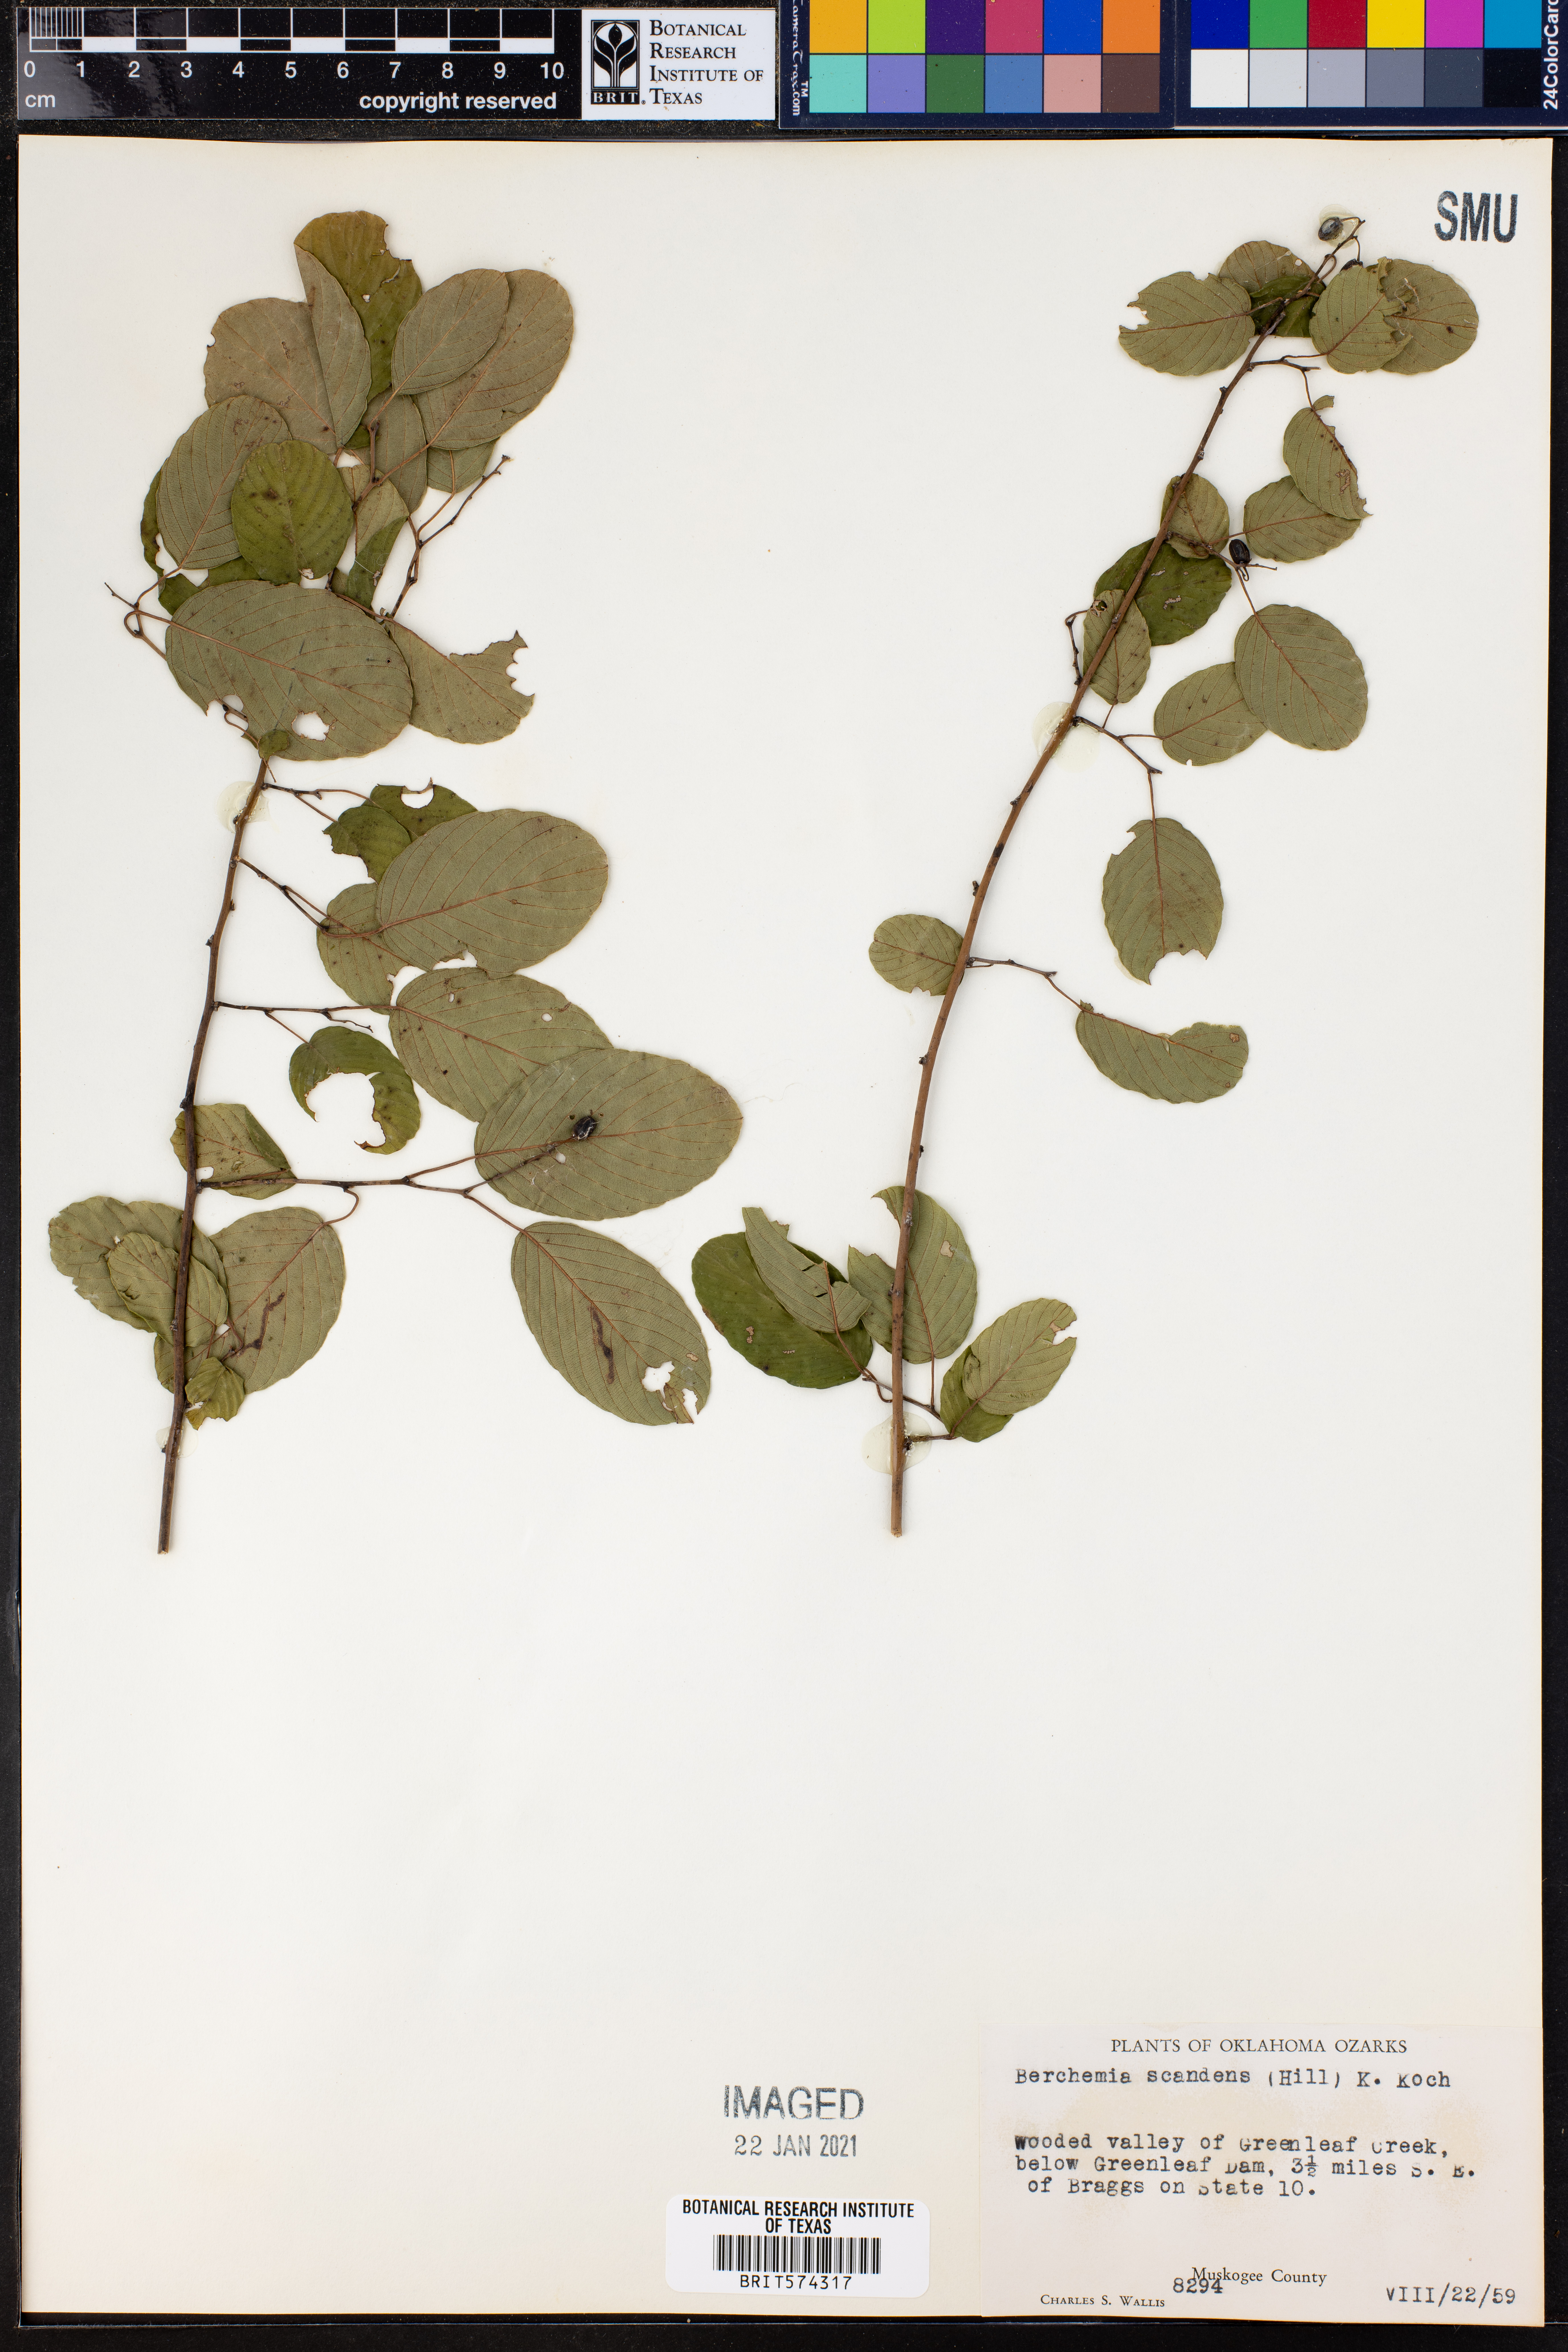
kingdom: Plantae
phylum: Tracheophyta
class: Magnoliopsida
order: Rosales
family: Rhamnaceae
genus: Berchemia
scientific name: Berchemia scandens
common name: Supplejack
